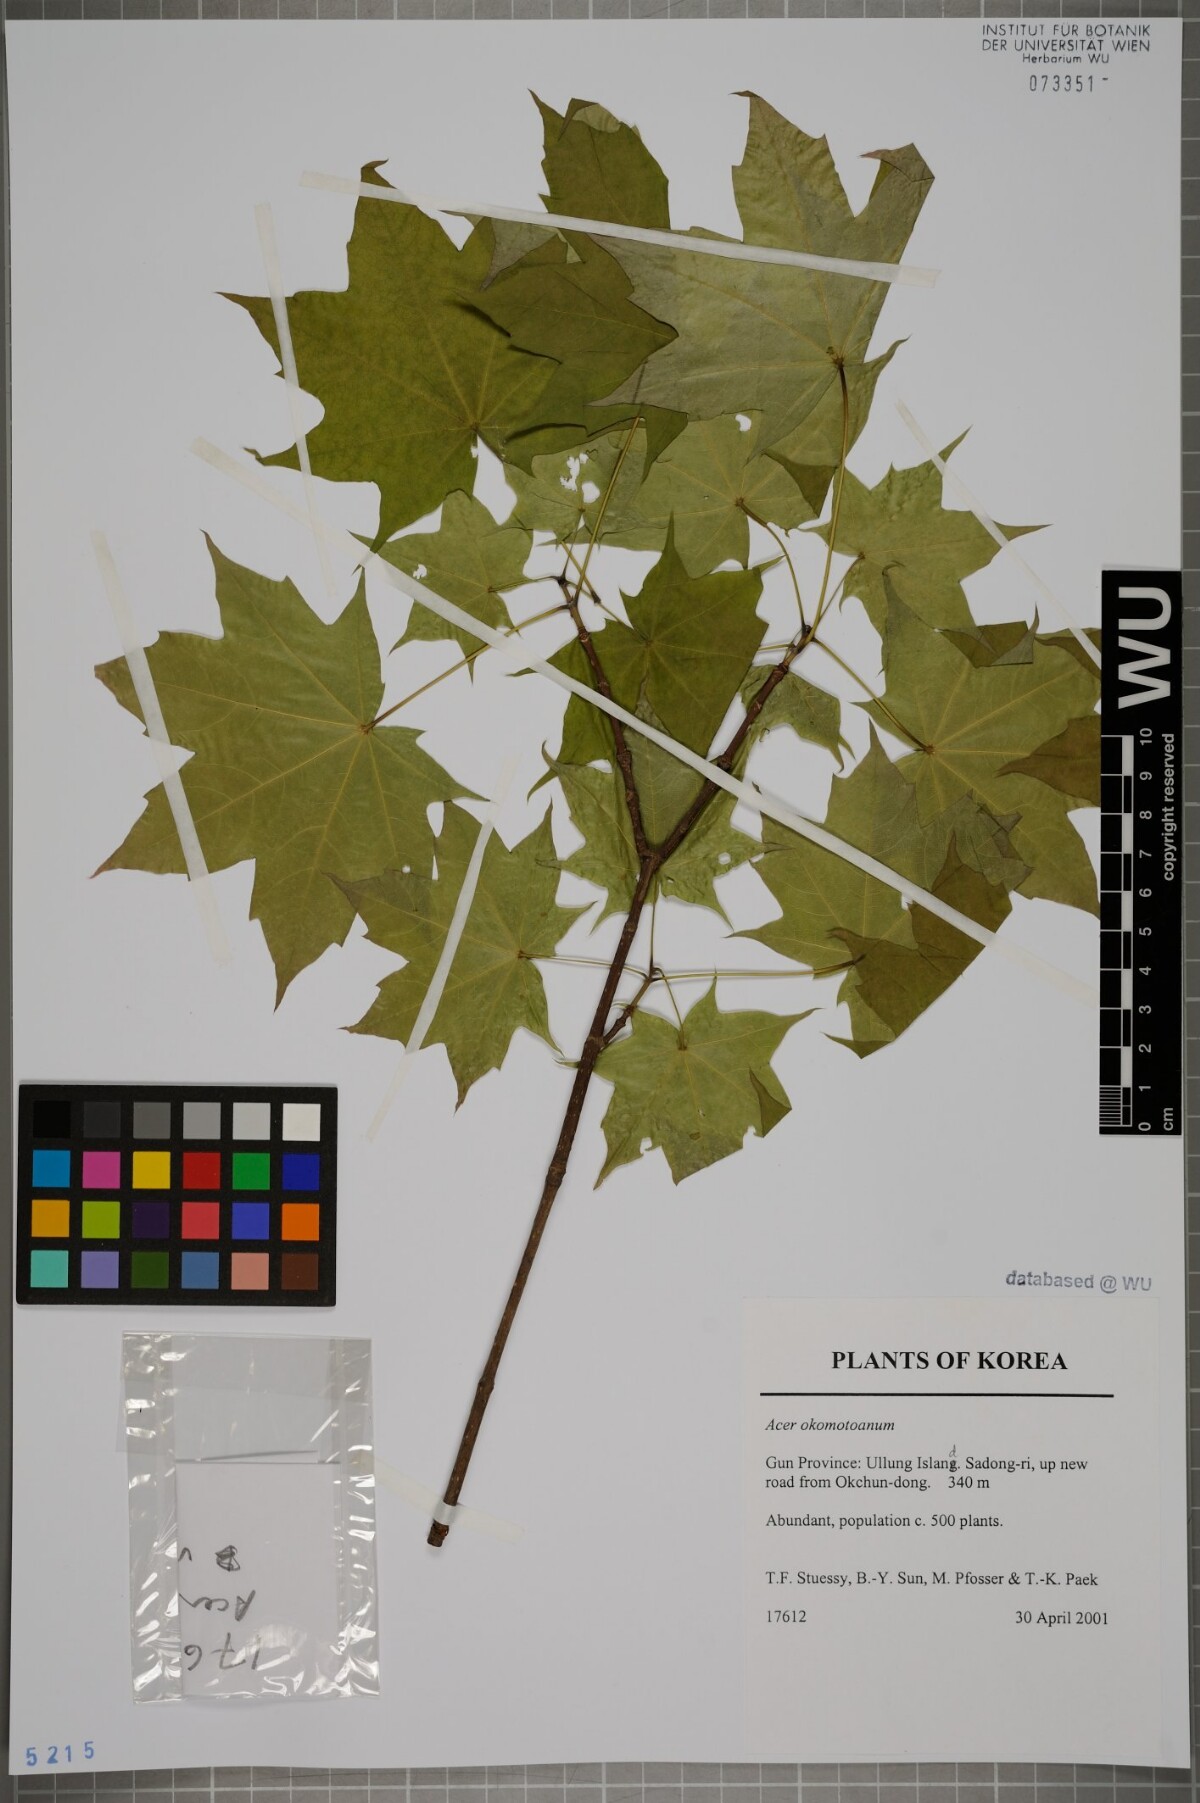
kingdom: Plantae
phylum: Tracheophyta
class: Magnoliopsida
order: Sapindales
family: Sapindaceae
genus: Acer
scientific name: Acer pictum
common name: The painted maple
